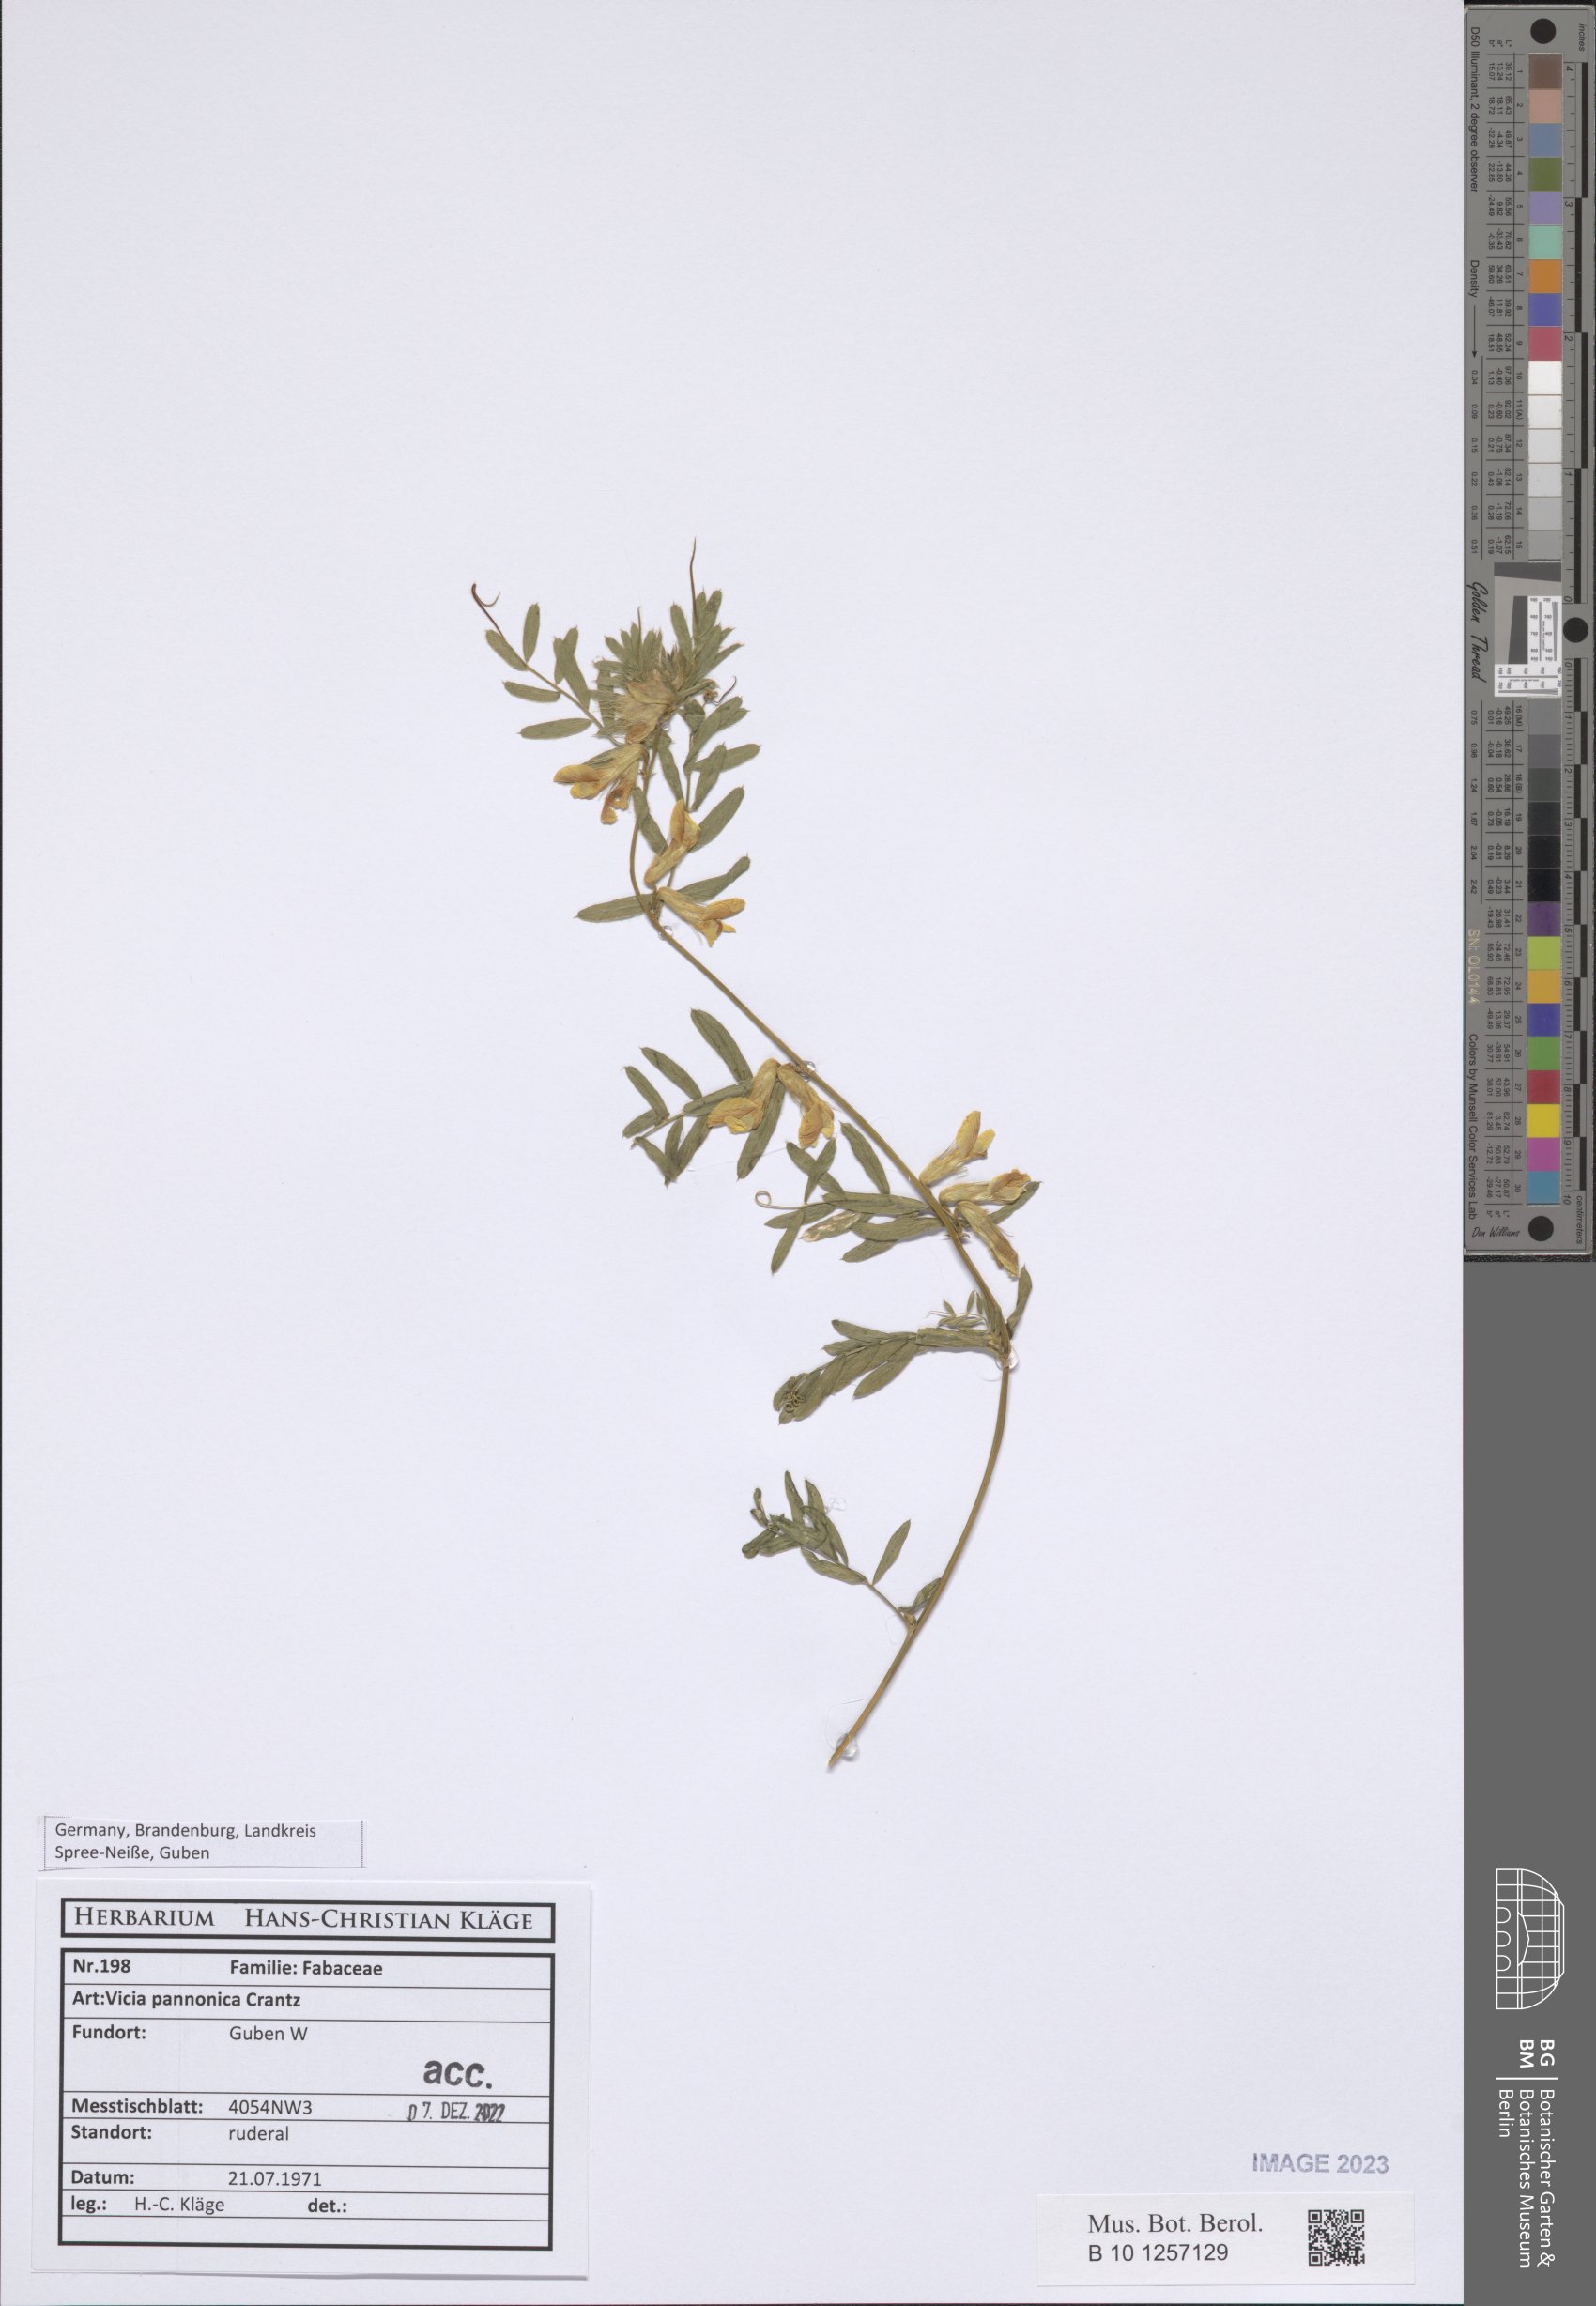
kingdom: Plantae
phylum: Tracheophyta
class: Magnoliopsida
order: Fabales
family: Fabaceae
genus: Vicia
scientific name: Vicia pannonica
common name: Hungarian vetch
